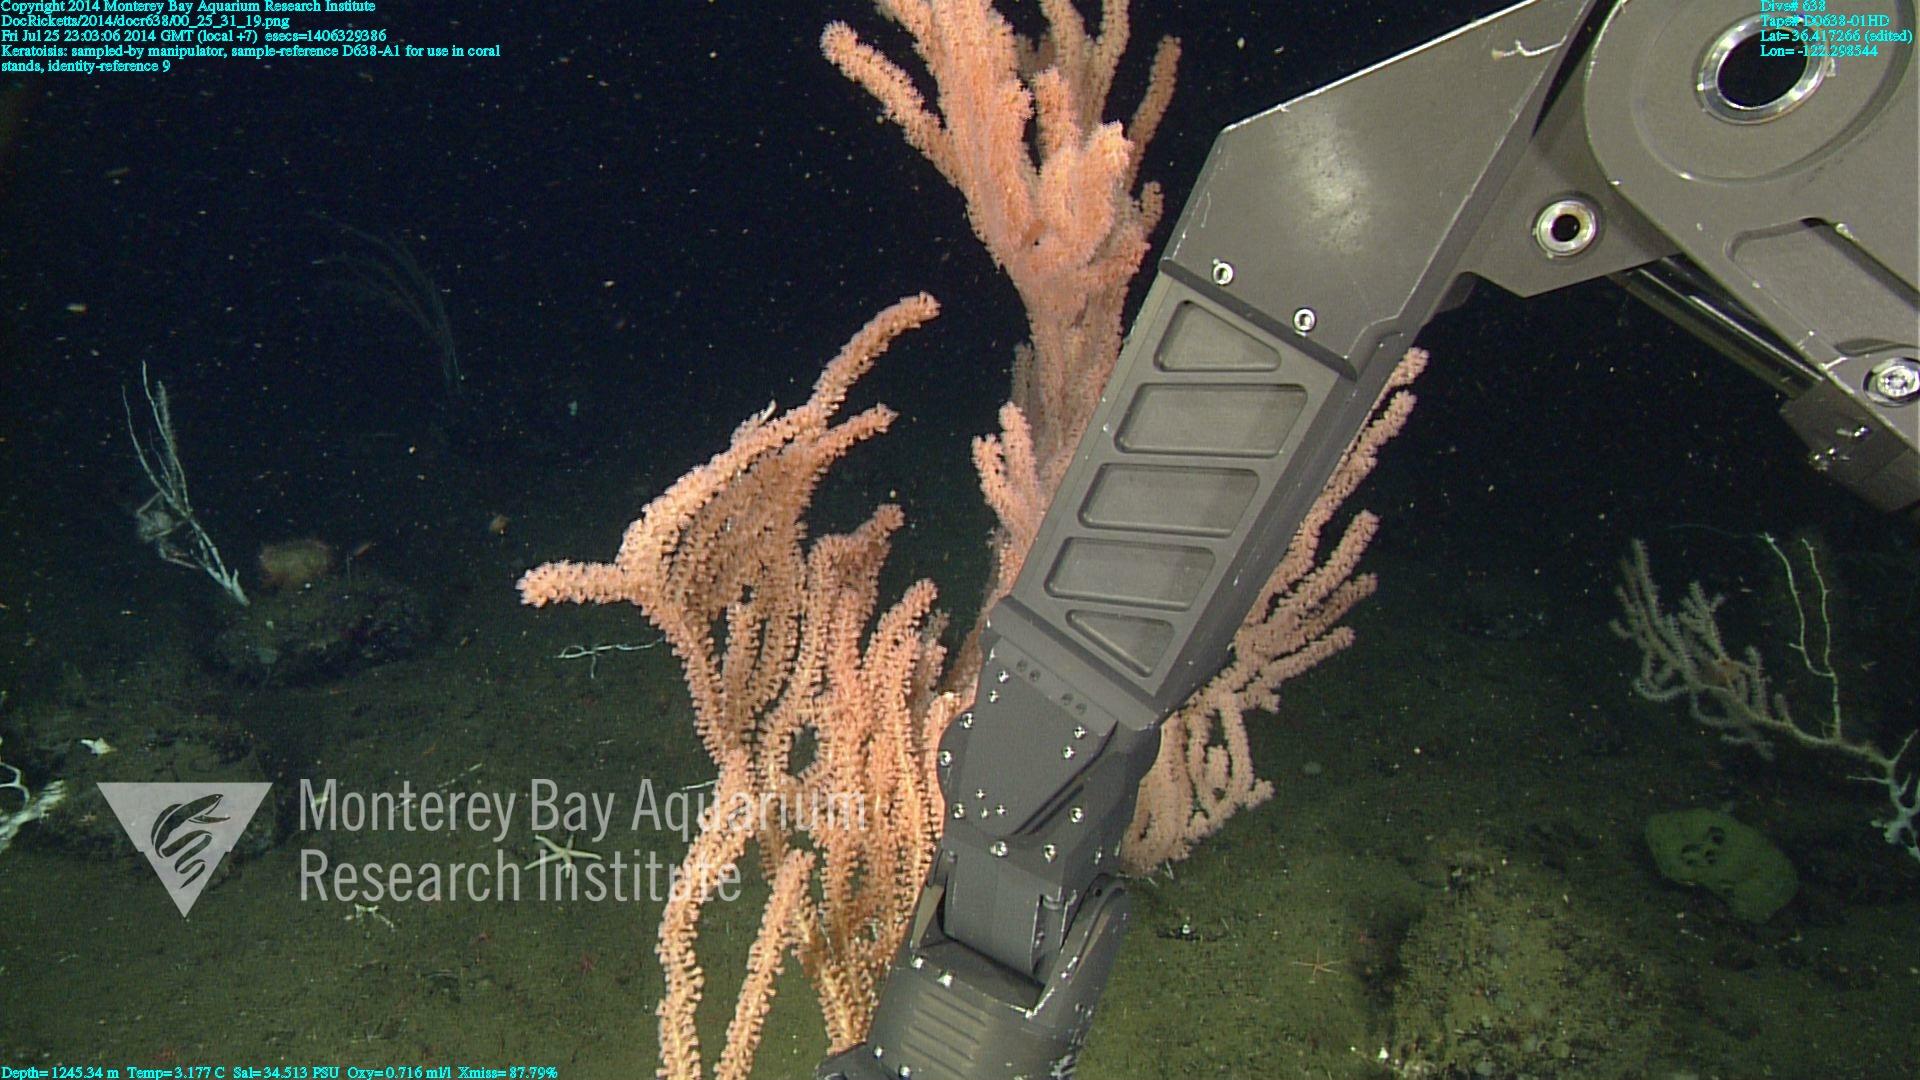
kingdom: Animalia
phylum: Cnidaria
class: Anthozoa
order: Scleralcyonacea
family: Keratoisididae
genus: Keratoisis
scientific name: Keratoisis
